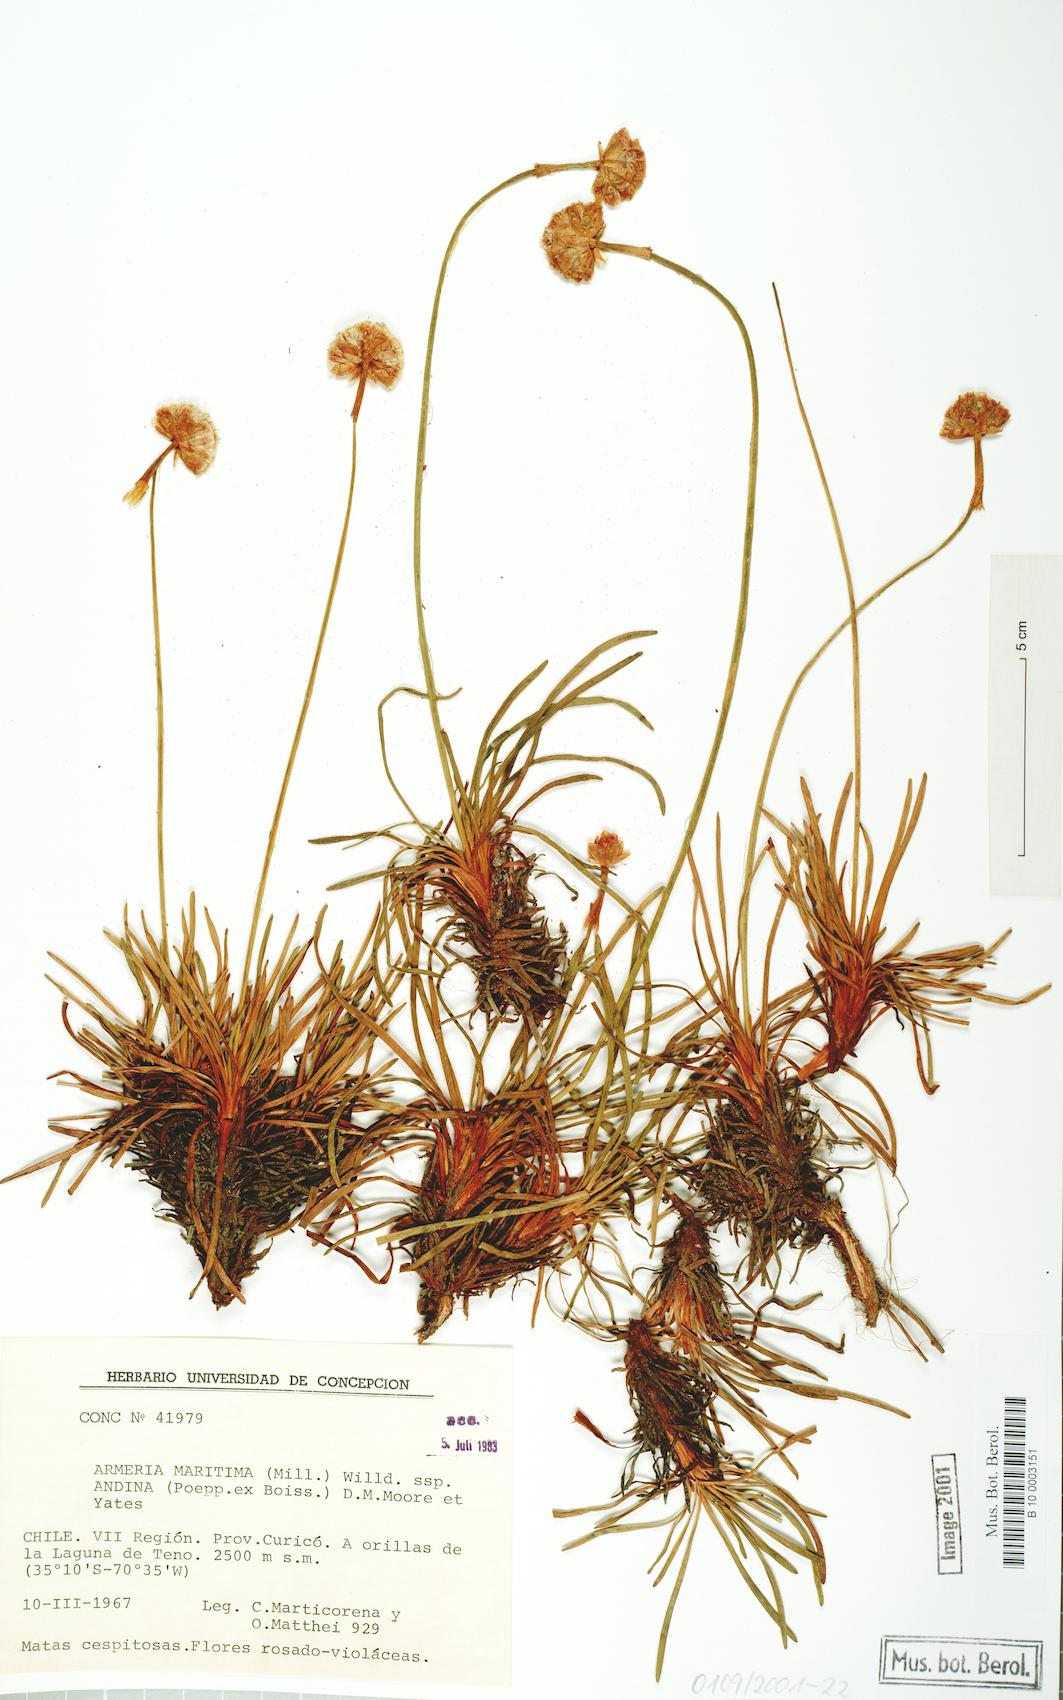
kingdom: Plantae
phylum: Tracheophyta
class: Magnoliopsida
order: Caryophyllales
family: Plumbaginaceae
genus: Armeria
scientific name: Armeria curvifolia
